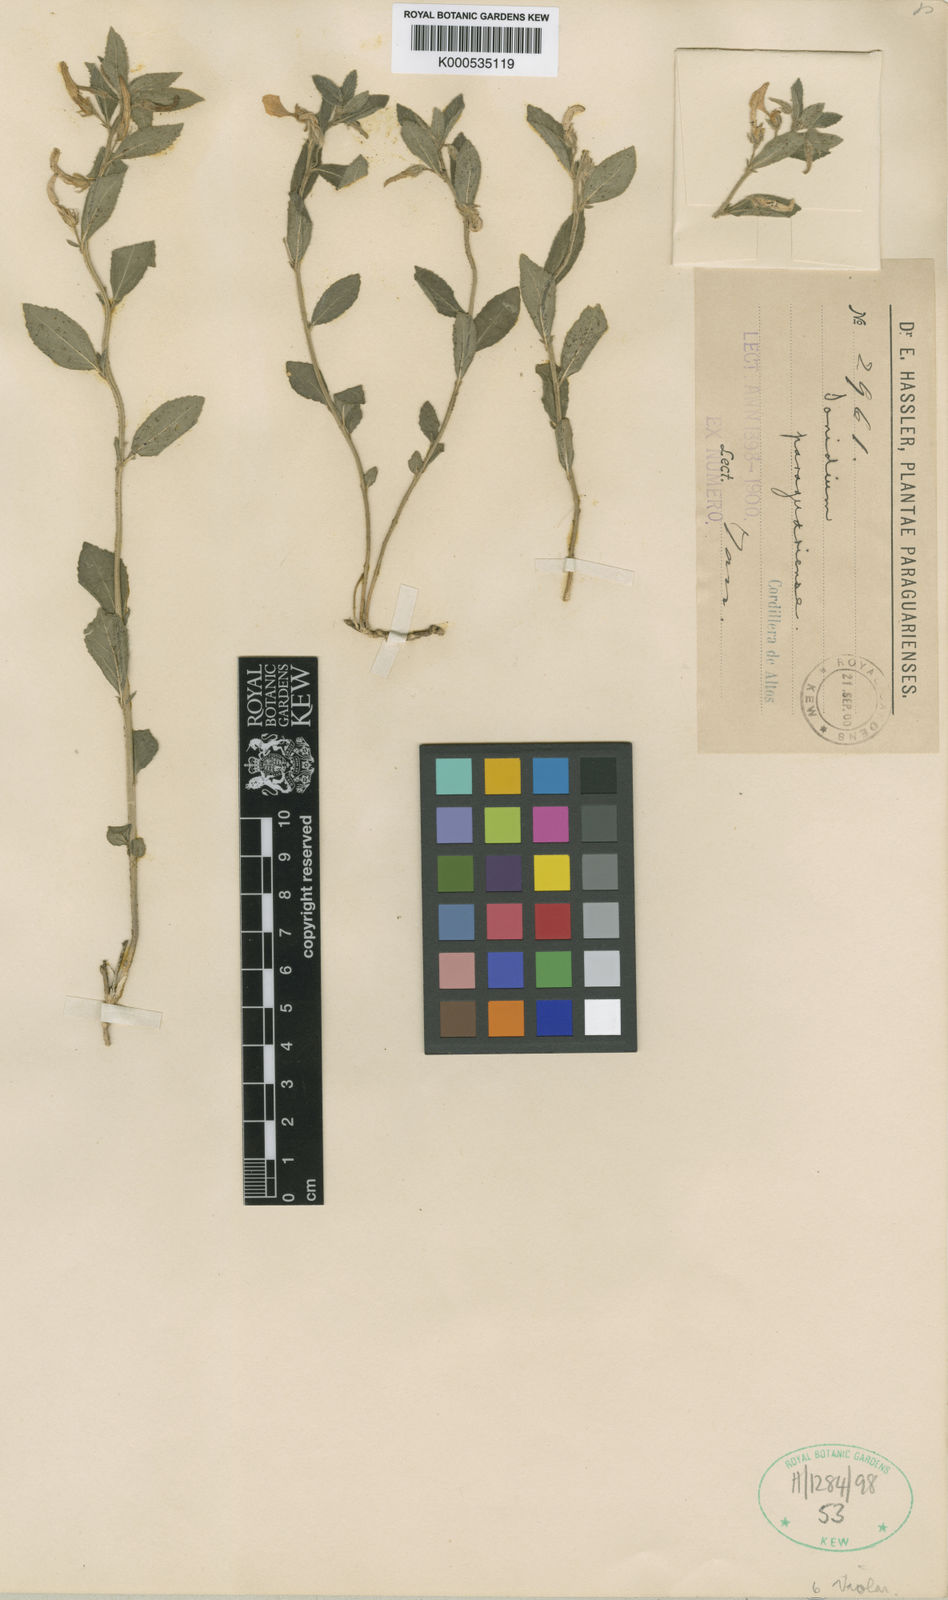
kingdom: Plantae
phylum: Tracheophyta
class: Magnoliopsida
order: Malpighiales
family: Violaceae
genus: Hybanthus
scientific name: Hybanthus
